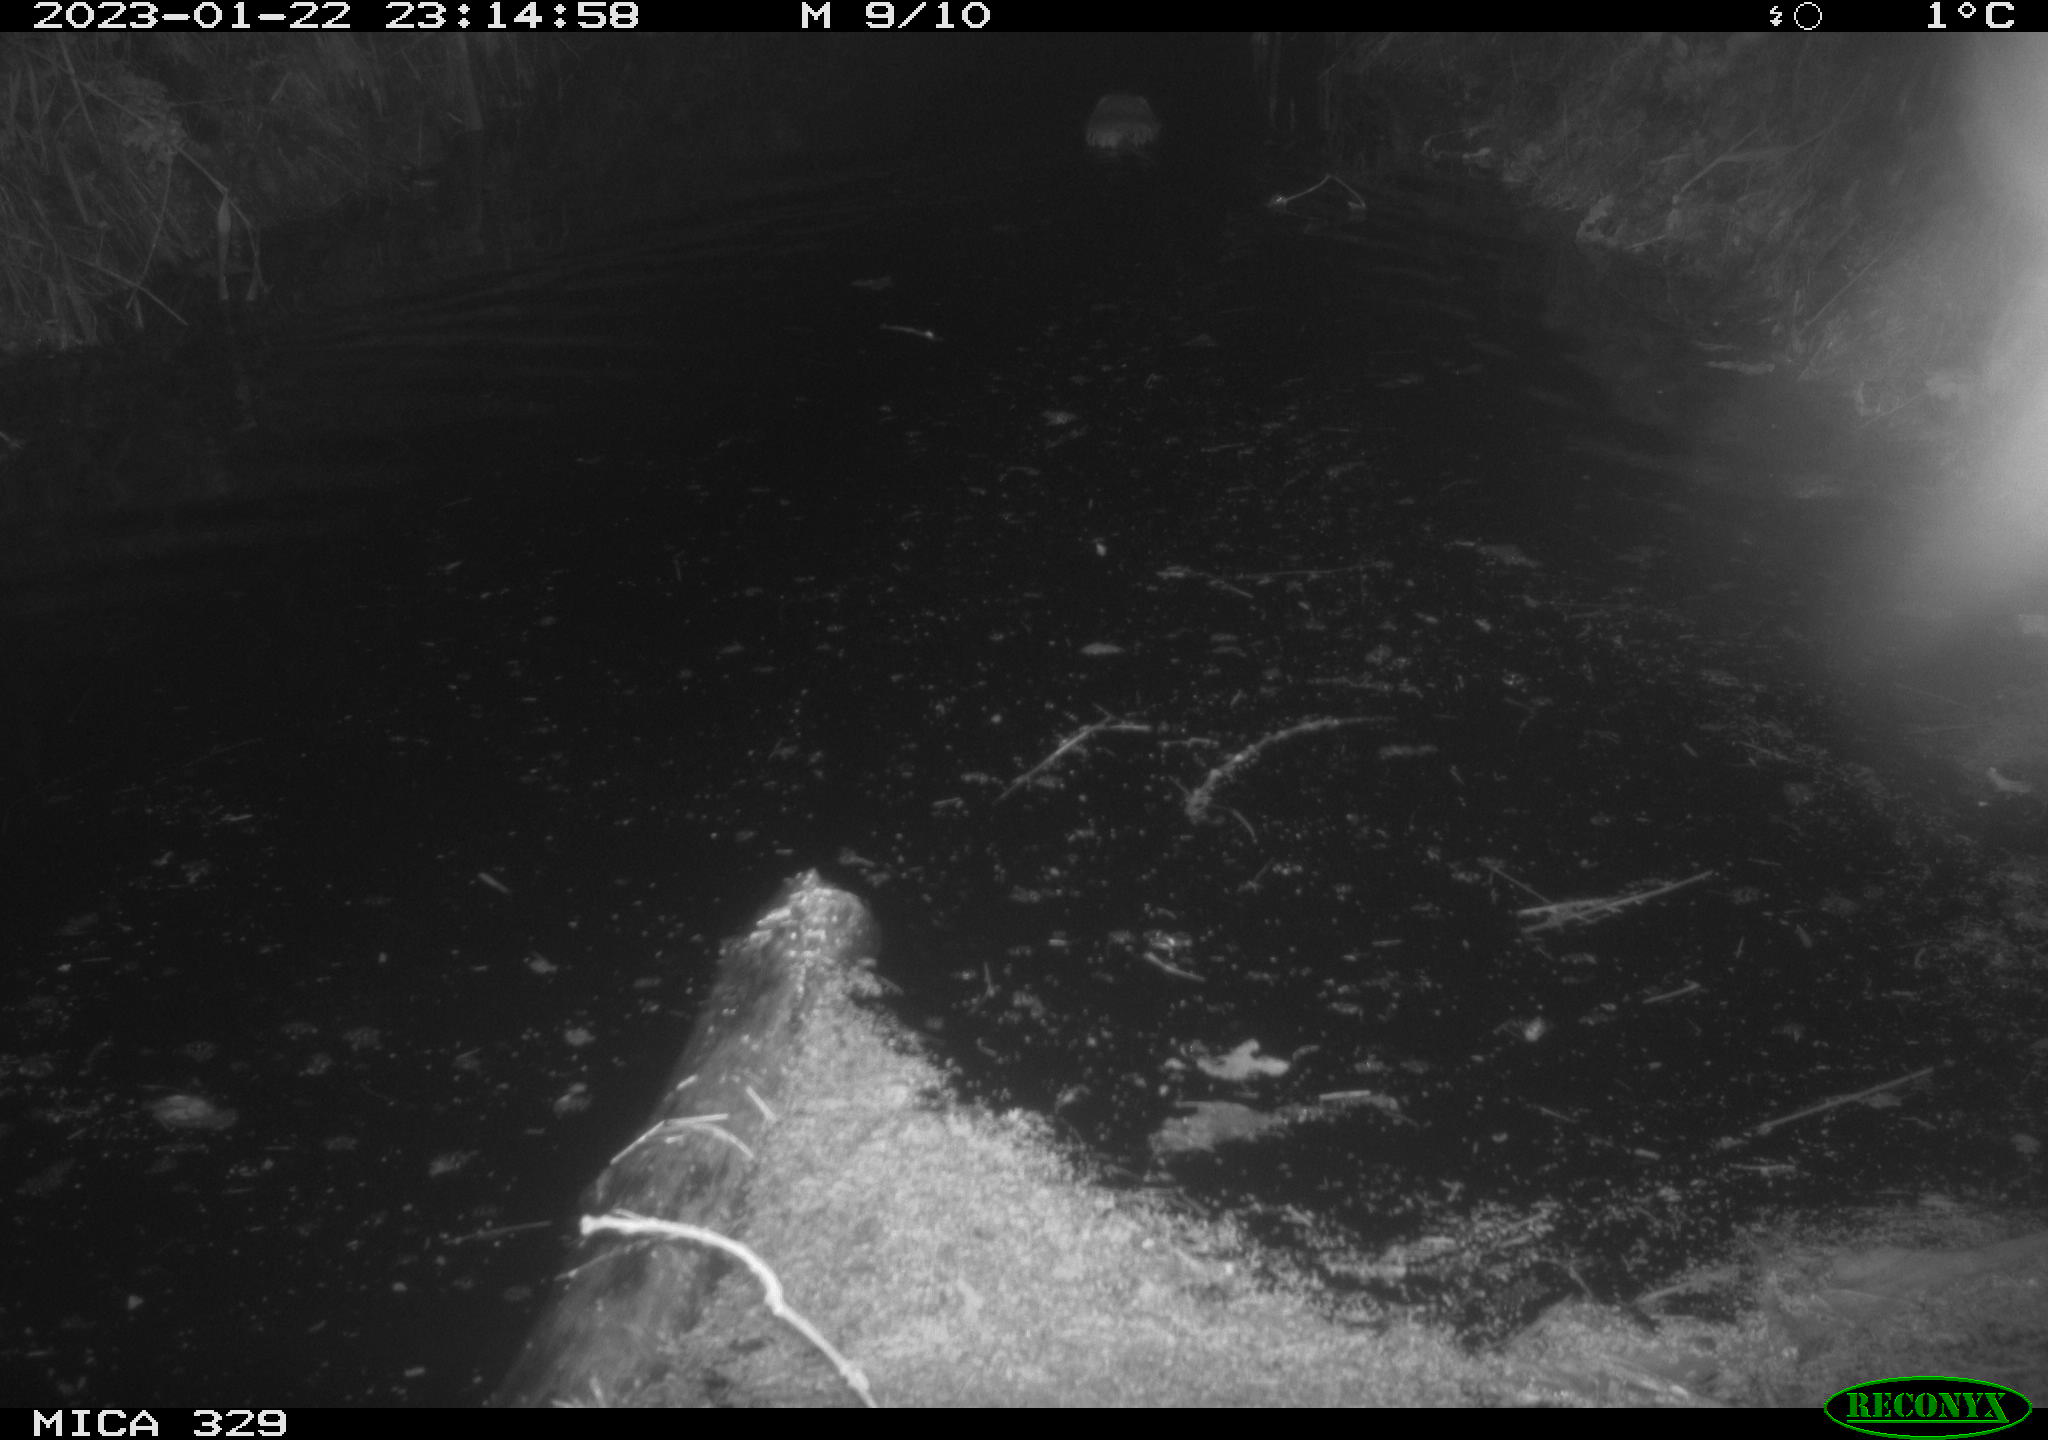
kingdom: Animalia
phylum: Chordata
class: Mammalia
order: Rodentia
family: Cricetidae
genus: Ondatra
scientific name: Ondatra zibethicus
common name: Muskrat
